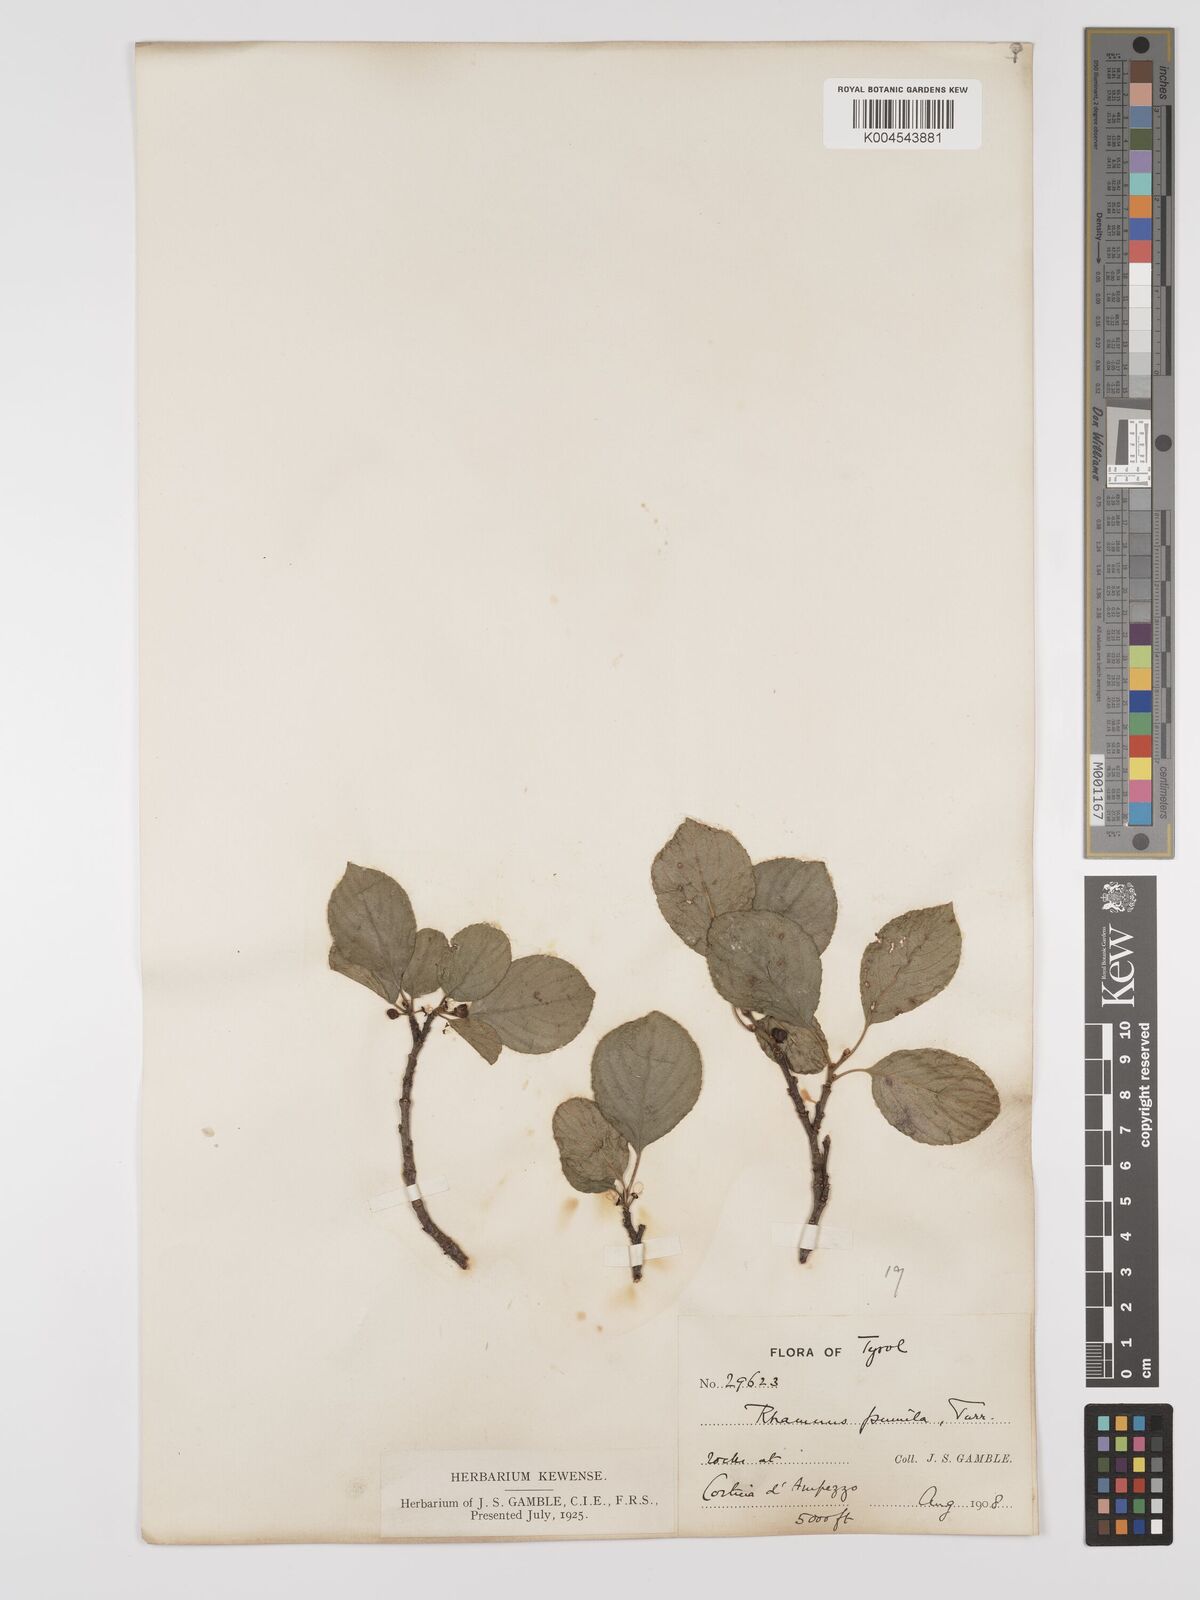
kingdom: Plantae
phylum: Tracheophyta
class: Magnoliopsida
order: Rosales
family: Rhamnaceae
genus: Rhamnus
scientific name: Rhamnus
